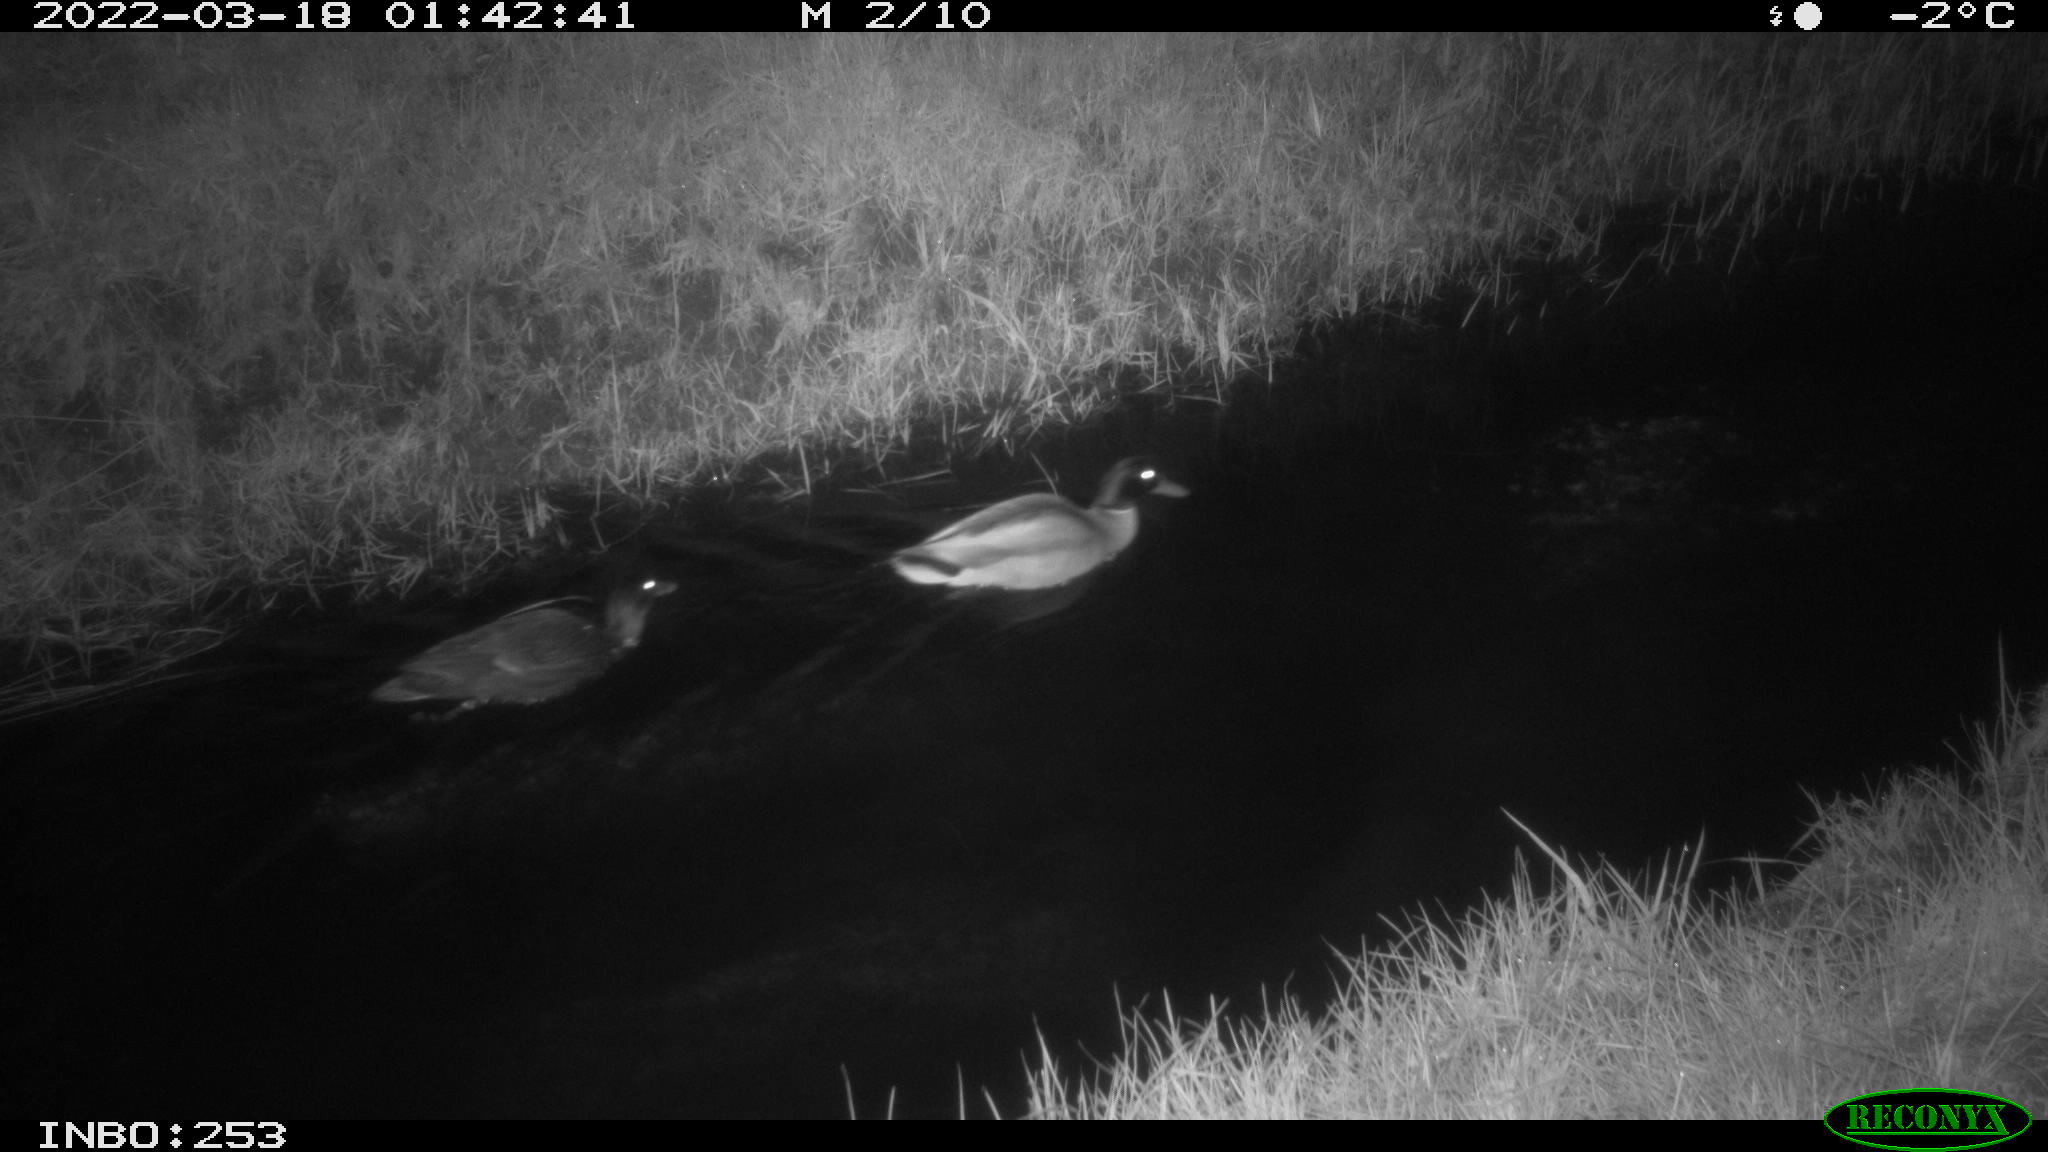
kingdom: Animalia
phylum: Chordata
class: Aves
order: Anseriformes
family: Anatidae
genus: Anas
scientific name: Anas platyrhynchos
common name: Mallard
